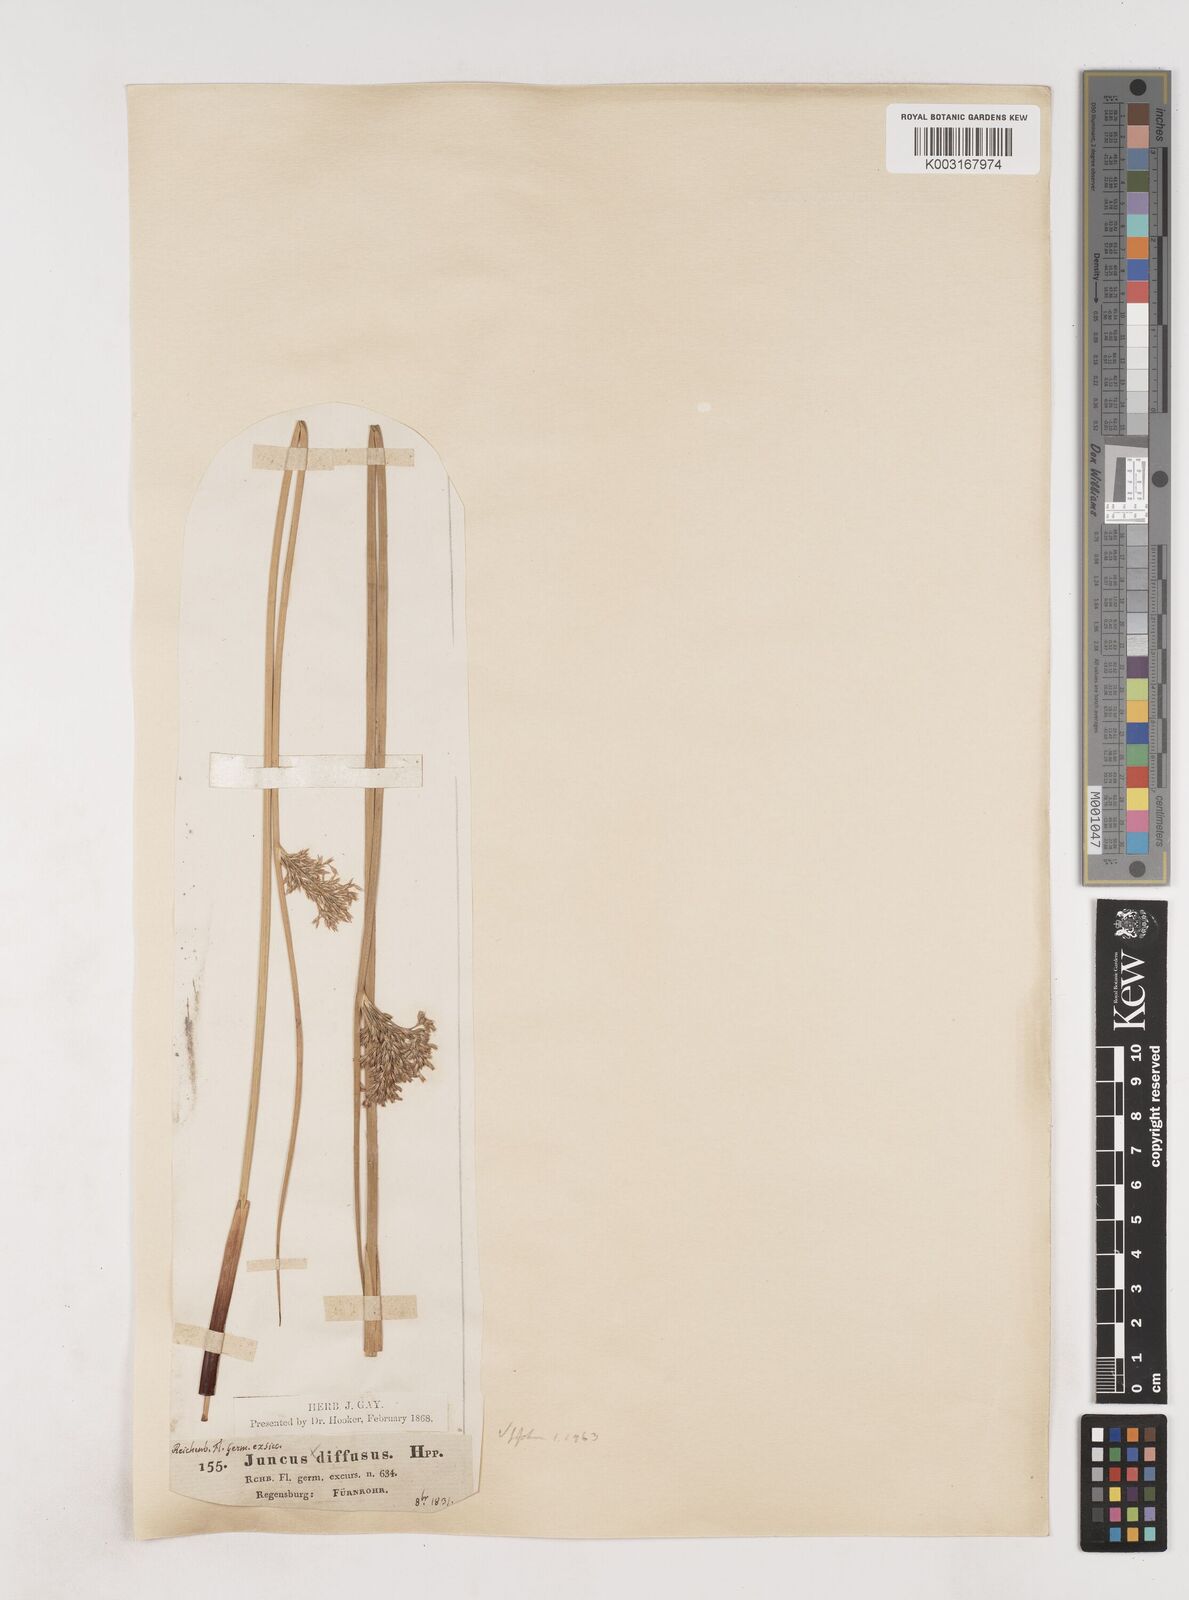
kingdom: Plantae
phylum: Tracheophyta
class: Liliopsida
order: Poales
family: Juncaceae
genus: Juncus
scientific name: Juncus effusus
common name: Soft rush
